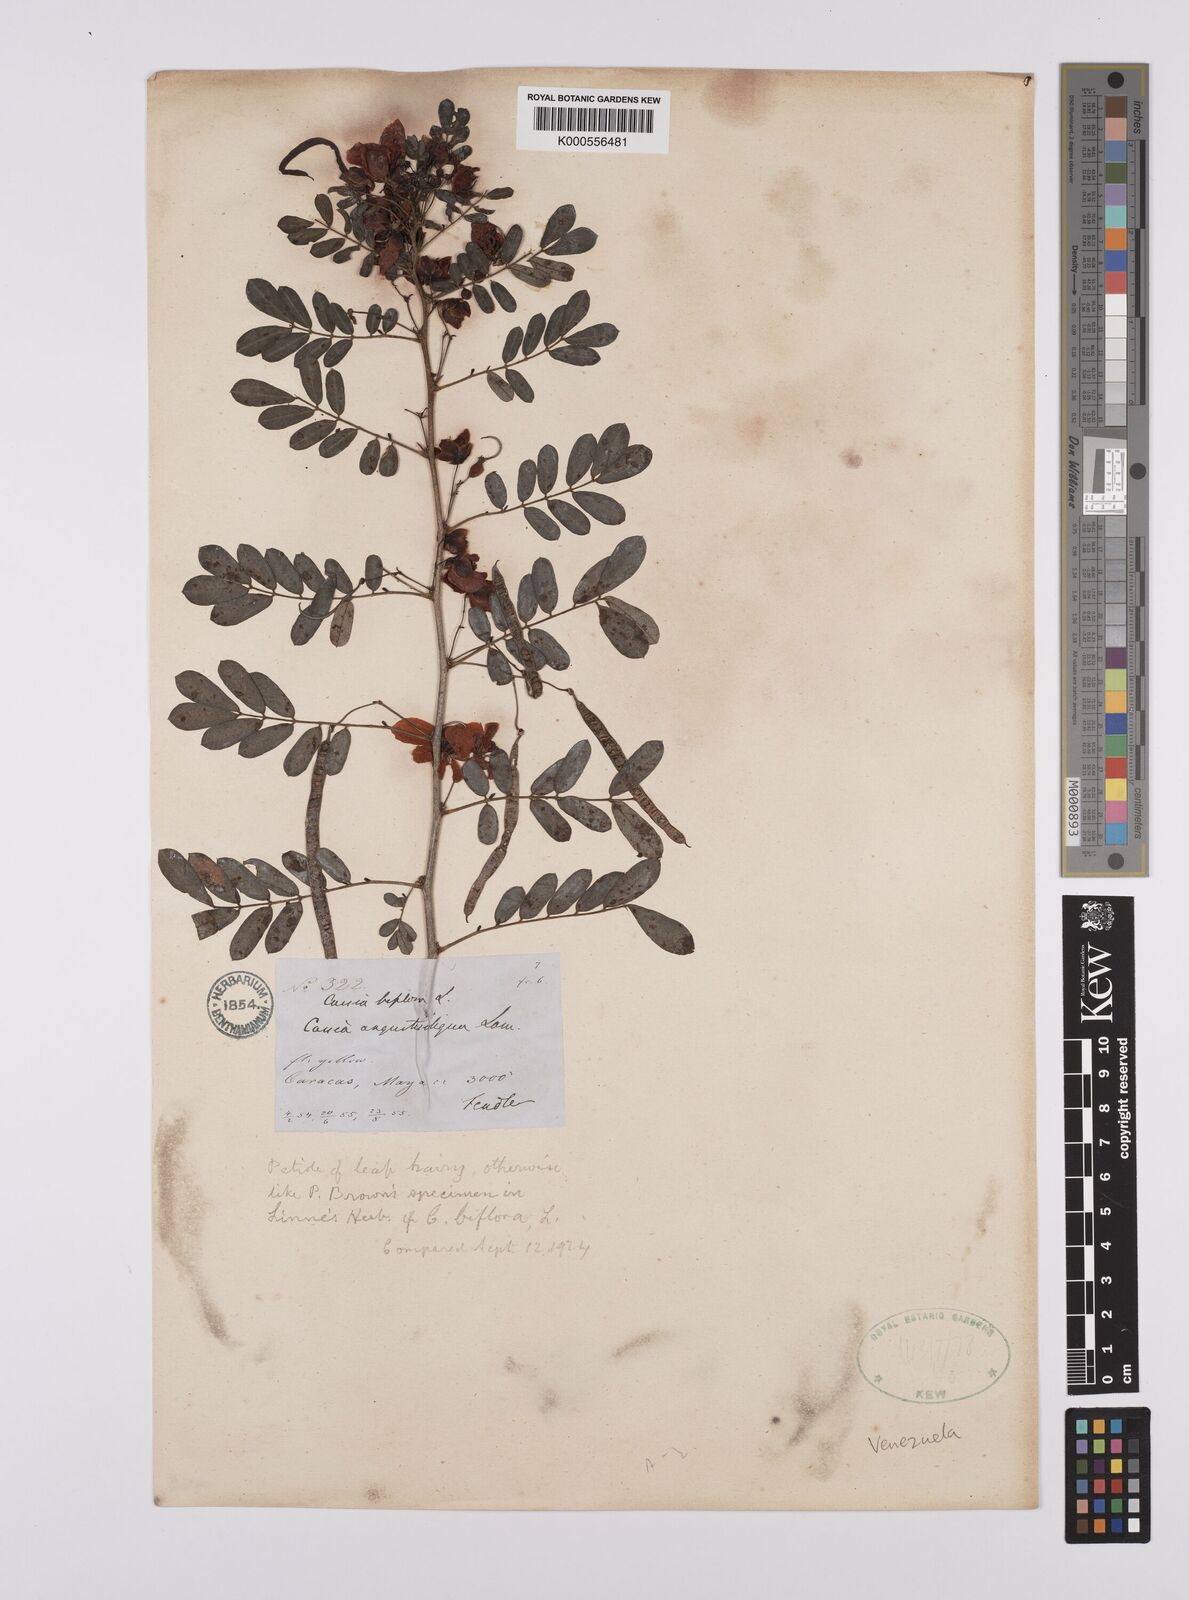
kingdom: Plantae
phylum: Tracheophyta
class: Magnoliopsida
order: Fabales
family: Fabaceae
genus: Senna
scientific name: Senna angustisiliqua
